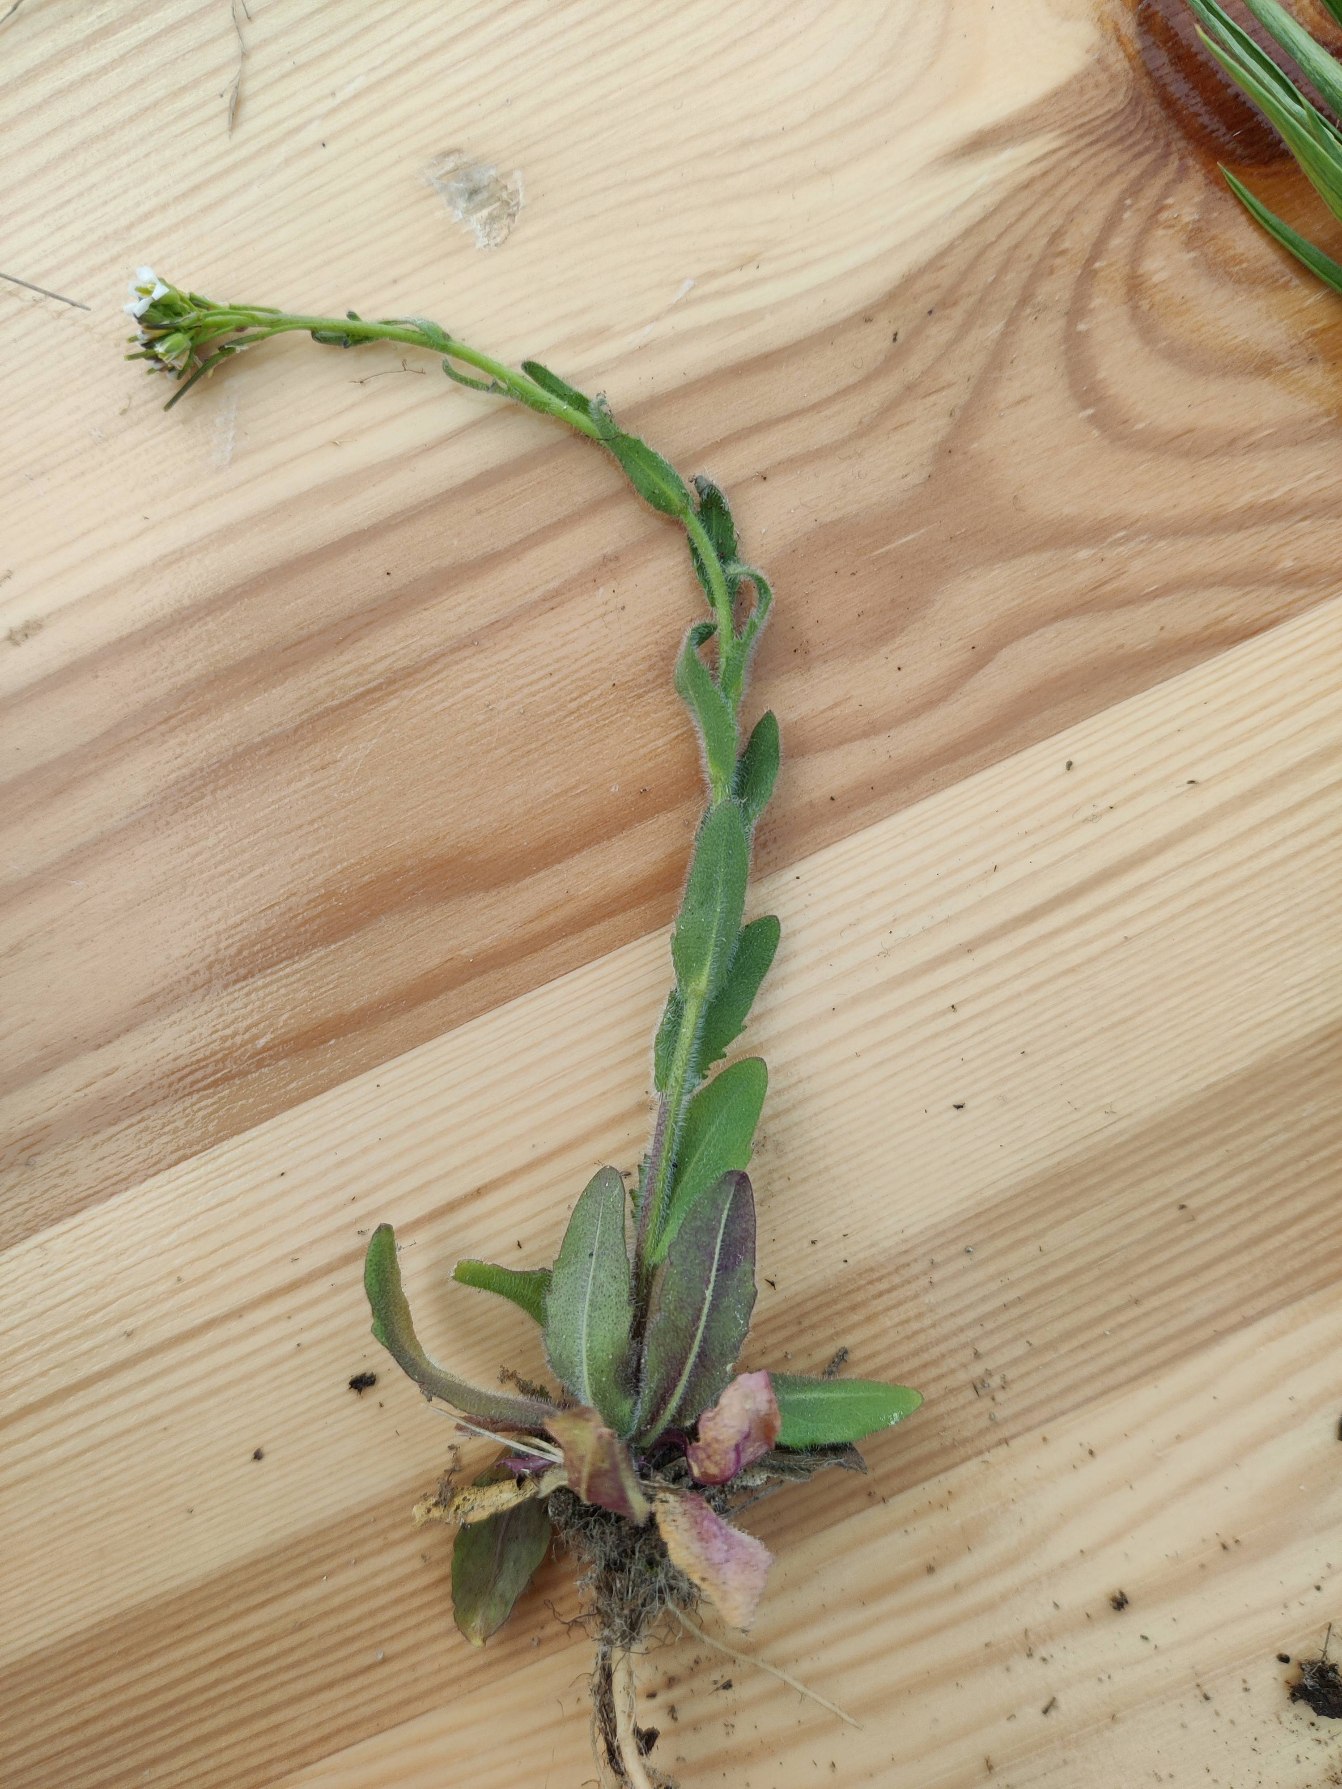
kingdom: Plantae
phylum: Tracheophyta
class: Magnoliopsida
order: Brassicales
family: Brassicaceae
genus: Arabis
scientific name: Arabis hirsuta
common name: Stivhåret kalkkarse
